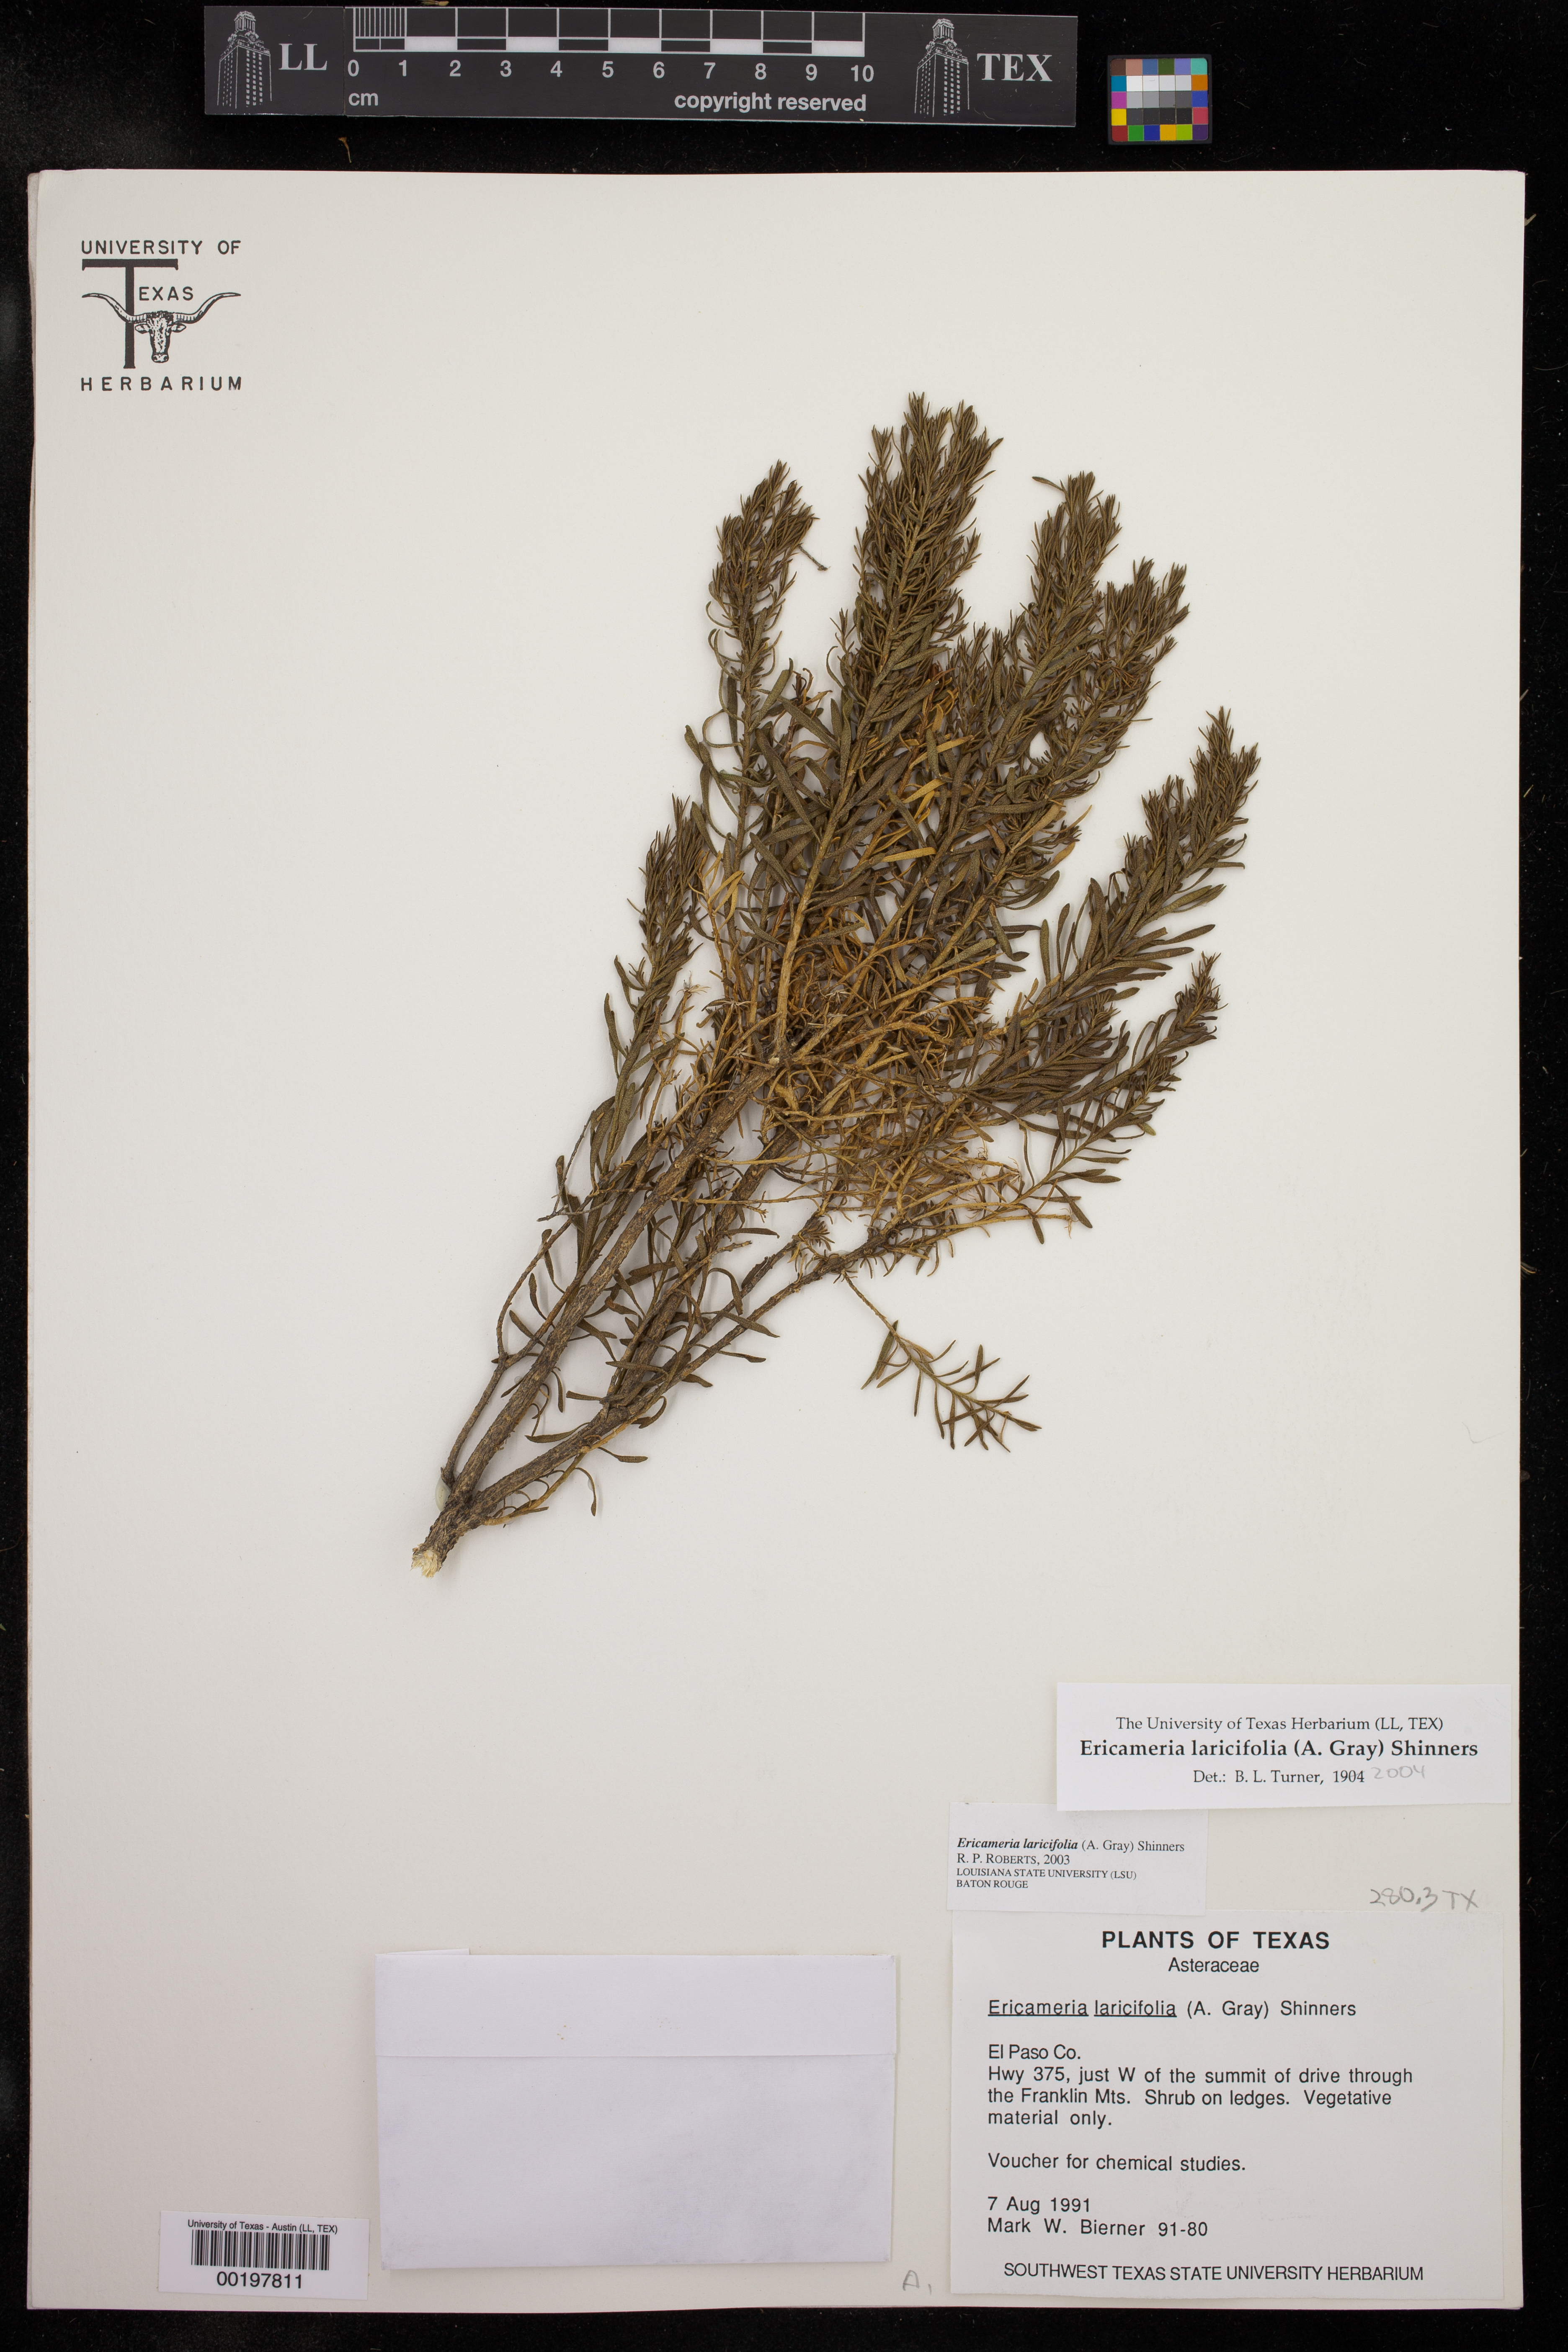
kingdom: Plantae
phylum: Tracheophyta
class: Magnoliopsida
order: Asterales
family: Asteraceae
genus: Ericameria
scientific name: Ericameria laricifolia
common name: Turpentine-bush
